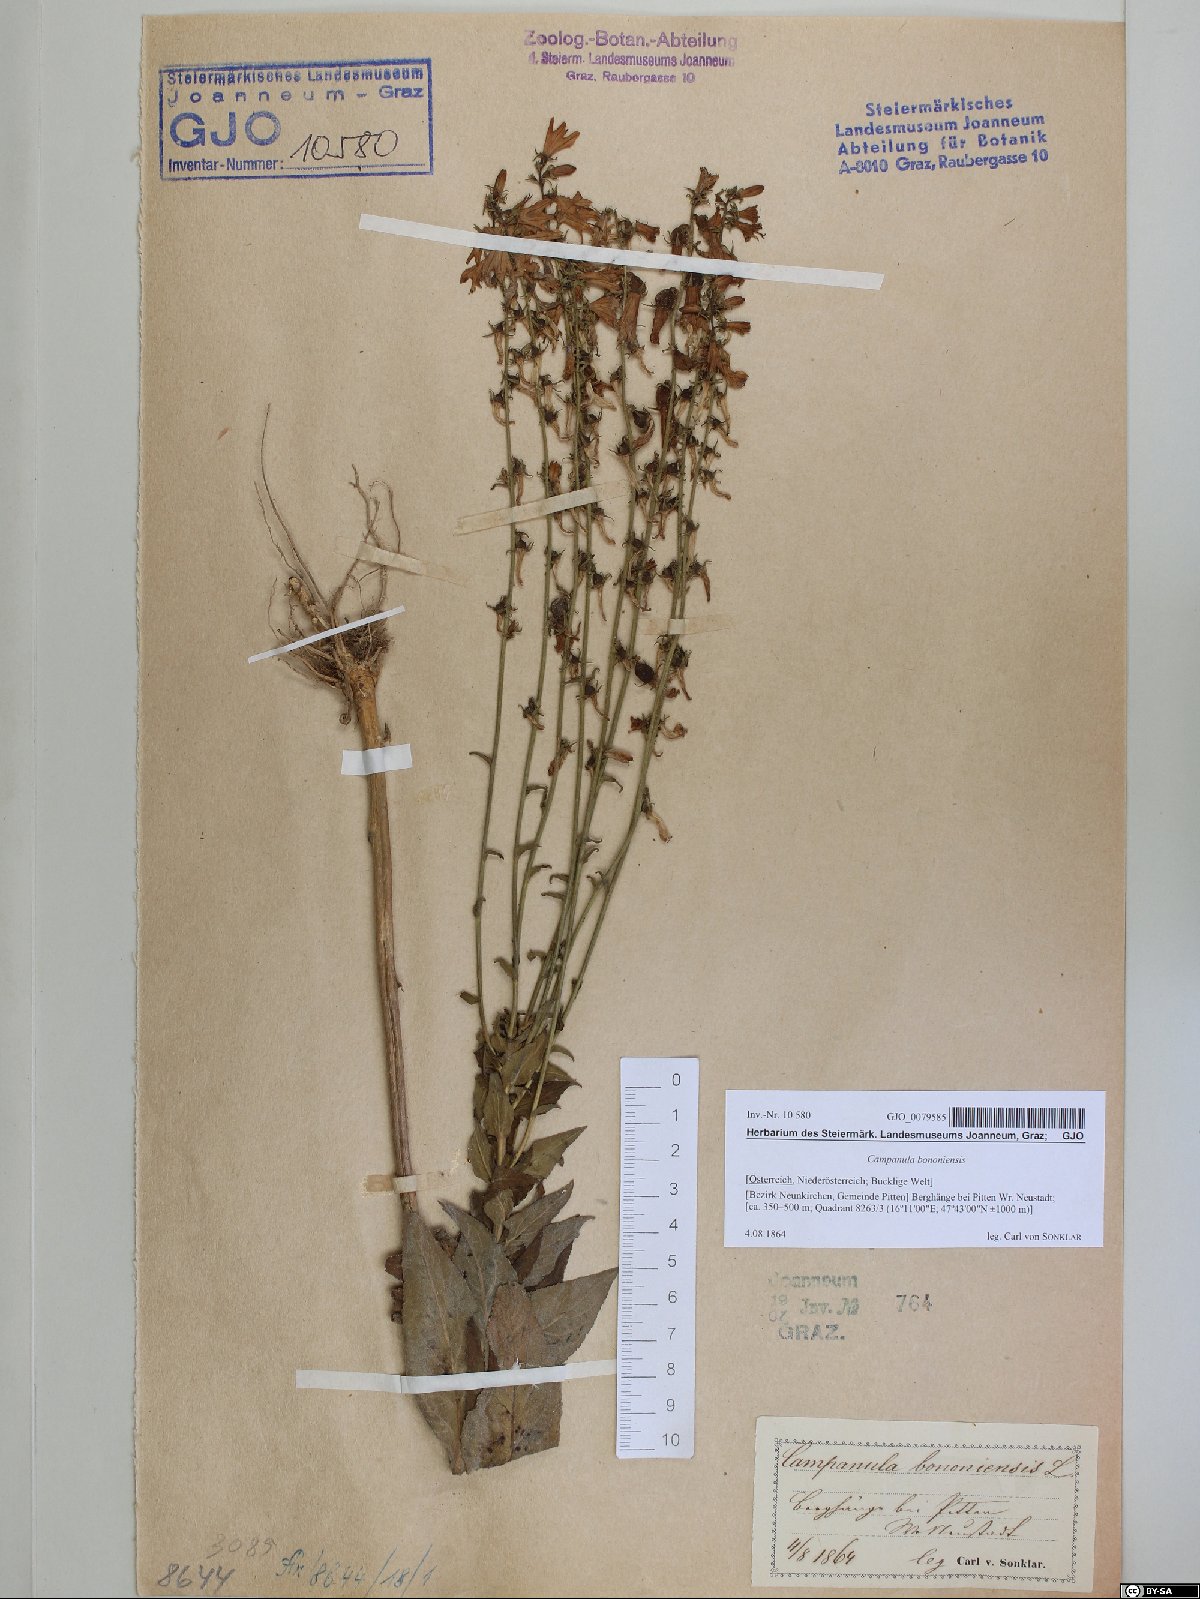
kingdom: Plantae
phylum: Tracheophyta
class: Magnoliopsida
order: Asterales
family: Campanulaceae
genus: Campanula
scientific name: Campanula bononiensis
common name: Pale bellflower
